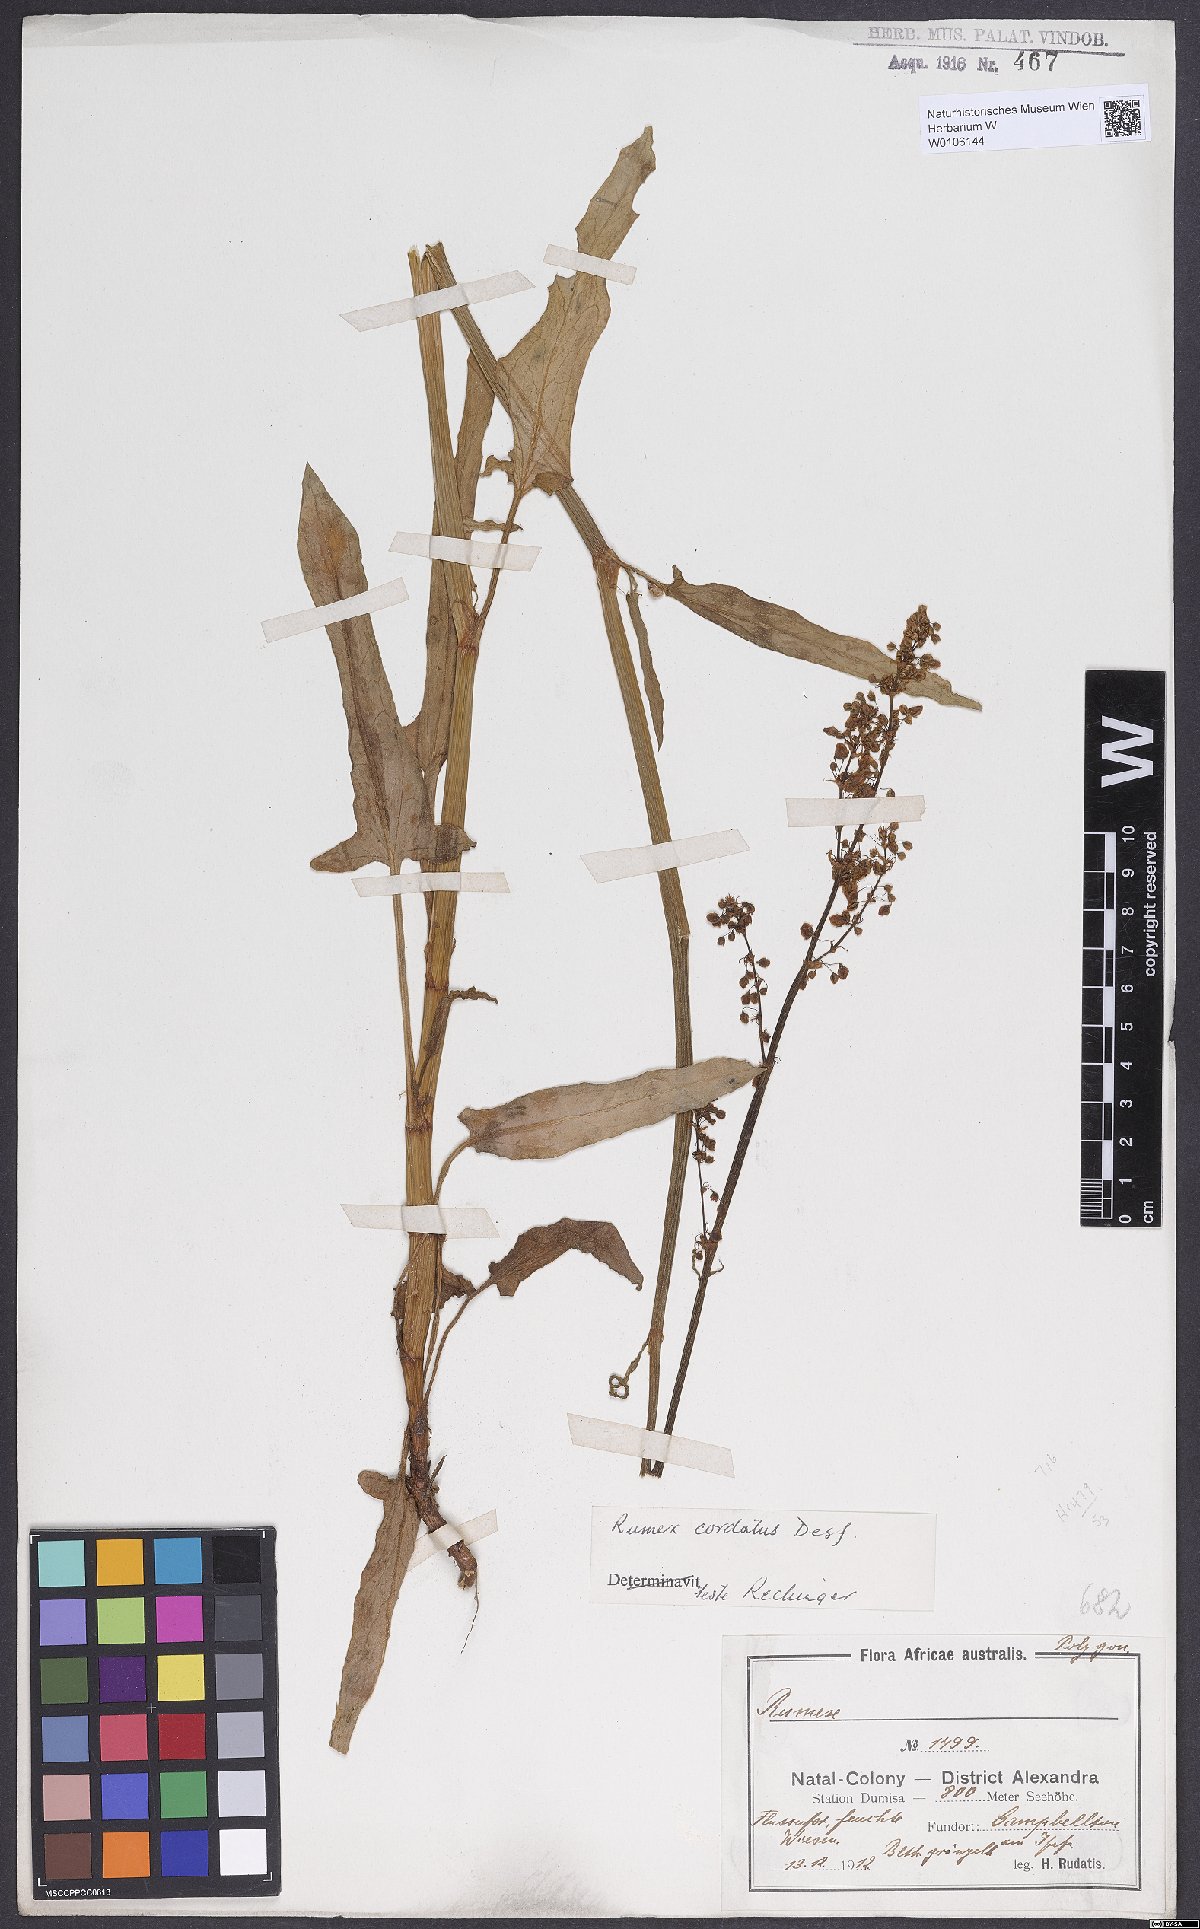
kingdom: Plantae
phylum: Tracheophyta
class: Magnoliopsida
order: Caryophyllales
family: Polygonaceae
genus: Rumex
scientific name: Rumex cordatus
